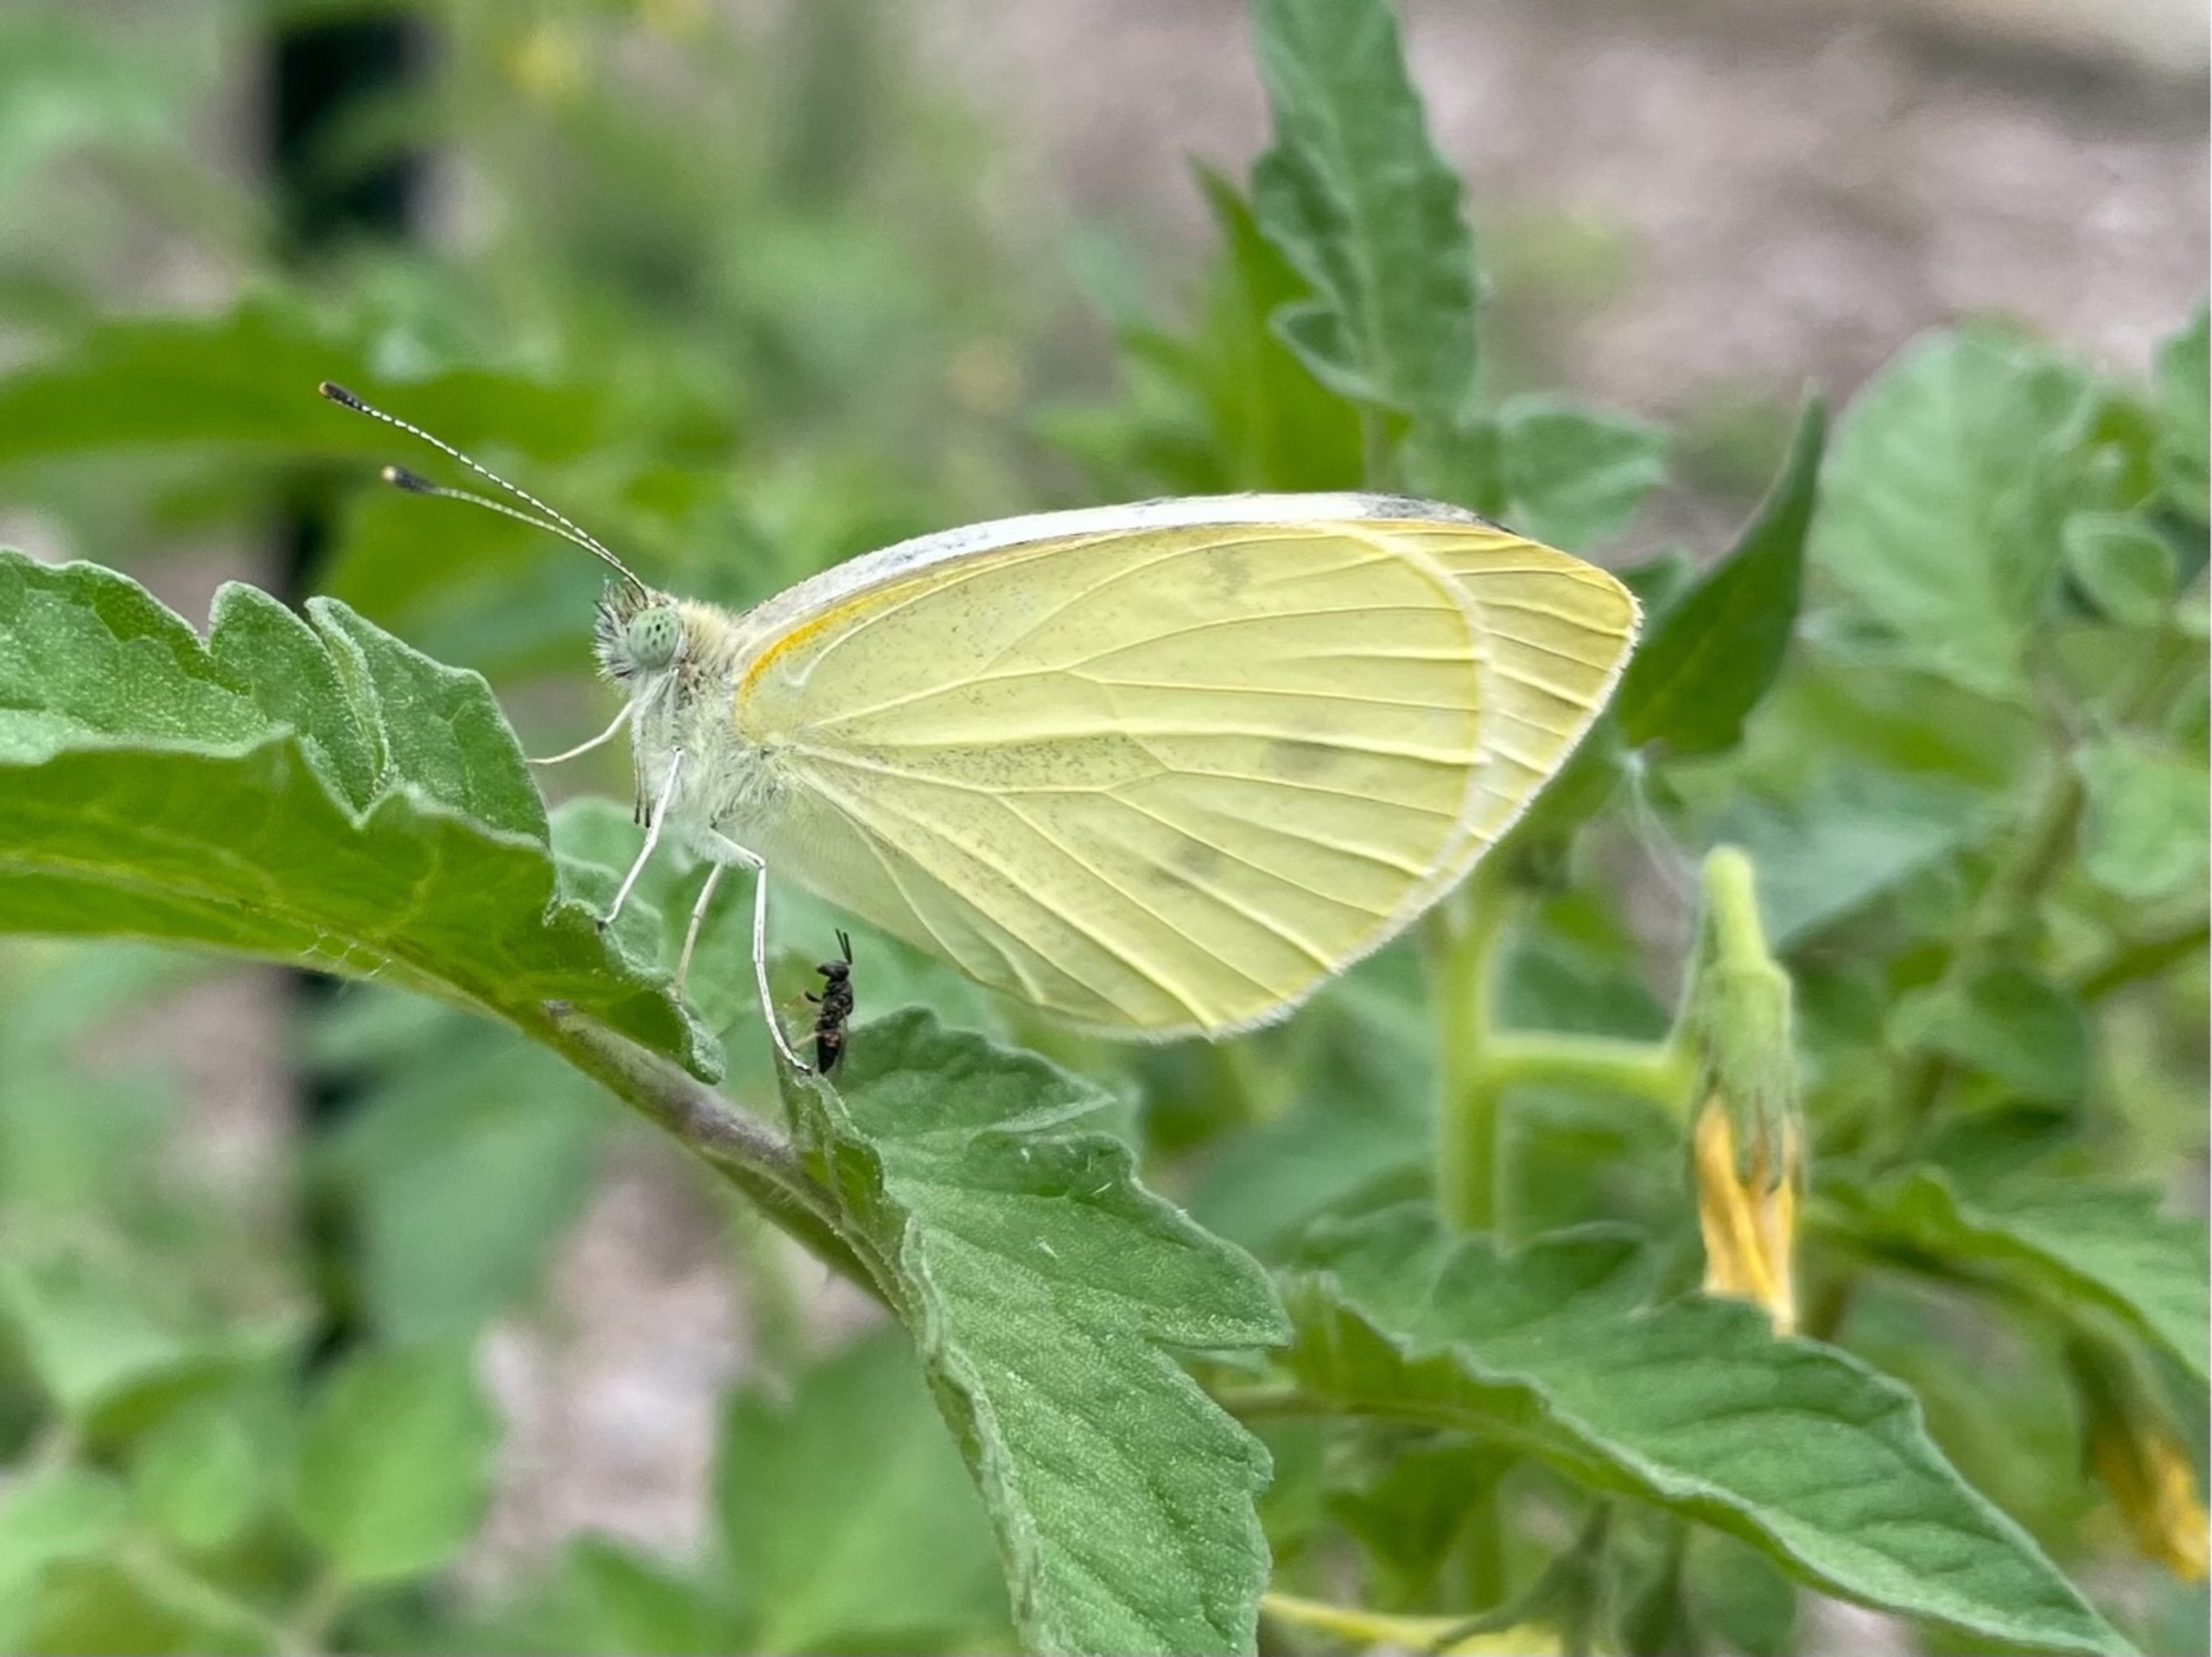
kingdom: Animalia
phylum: Arthropoda
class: Insecta
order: Lepidoptera
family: Pieridae
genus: Pieris
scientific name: Pieris rapae
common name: Lille kålsommerfugl
